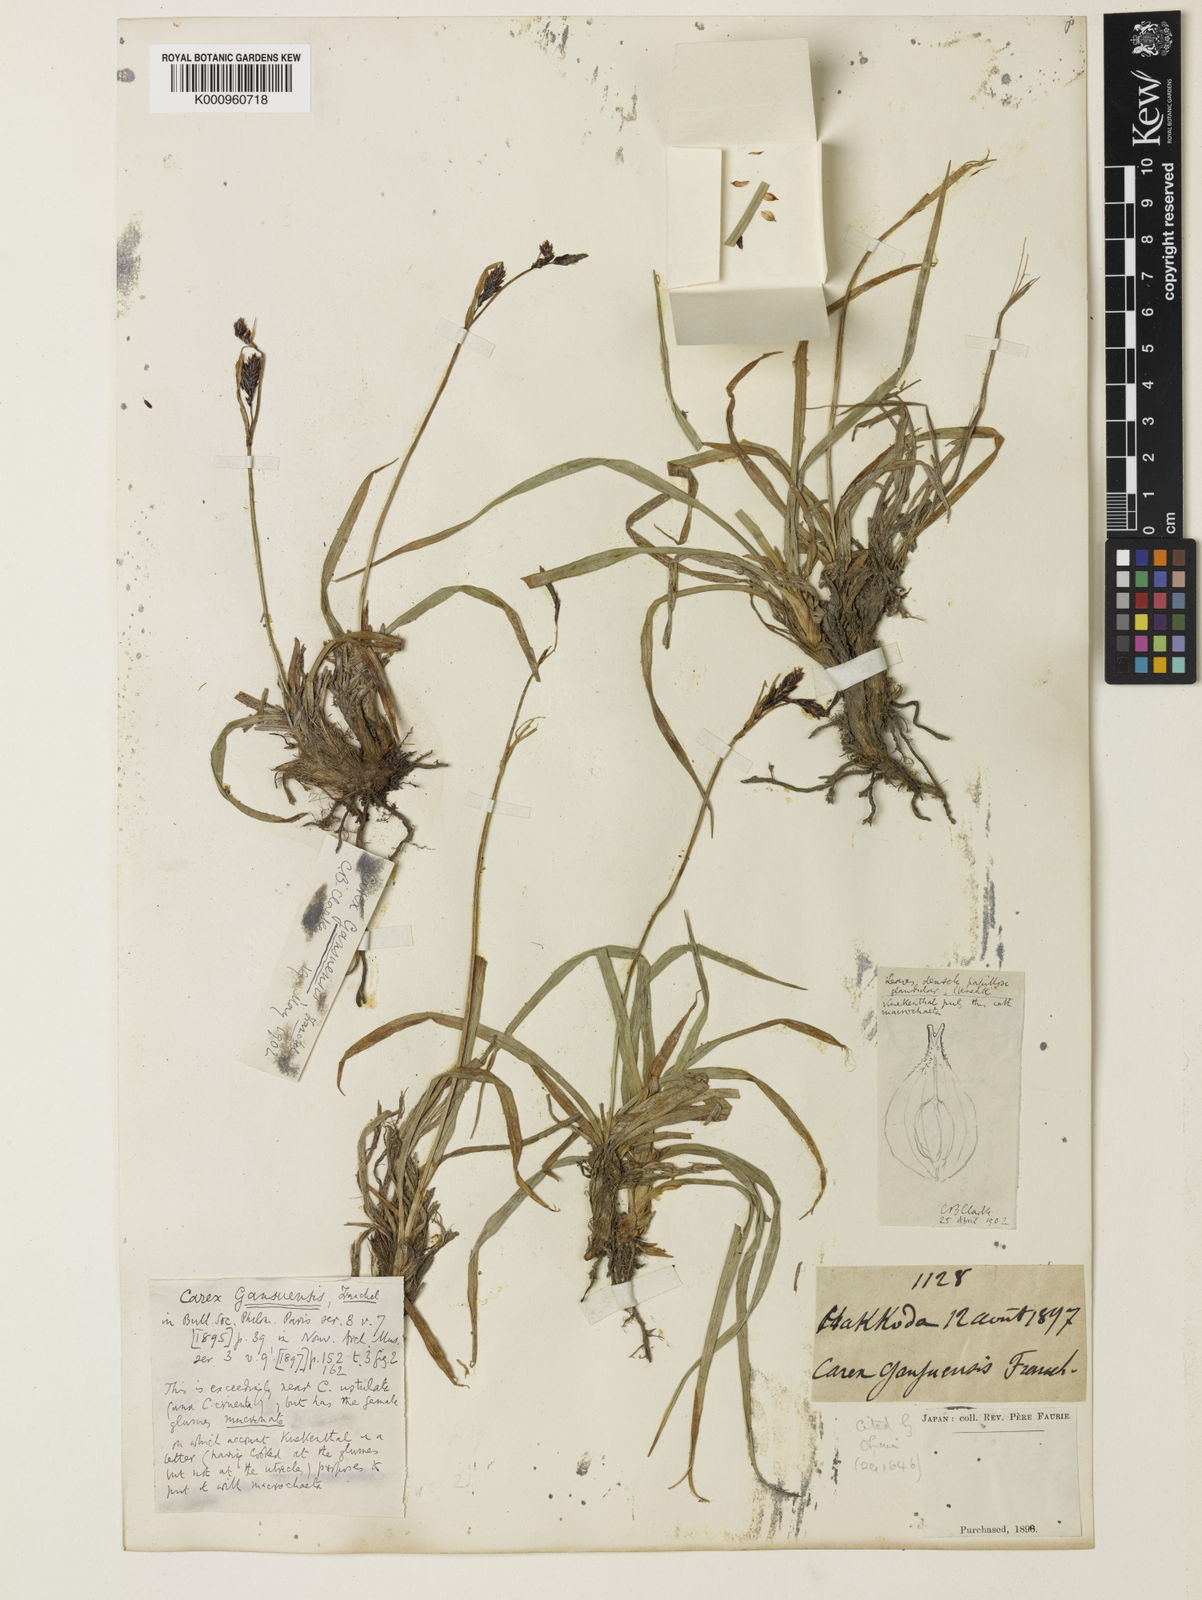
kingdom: Plantae
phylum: Tracheophyta
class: Liliopsida
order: Poales
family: Cyperaceae
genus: Carex
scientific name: Carex macrochaeta
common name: Alaska large awn sedge
